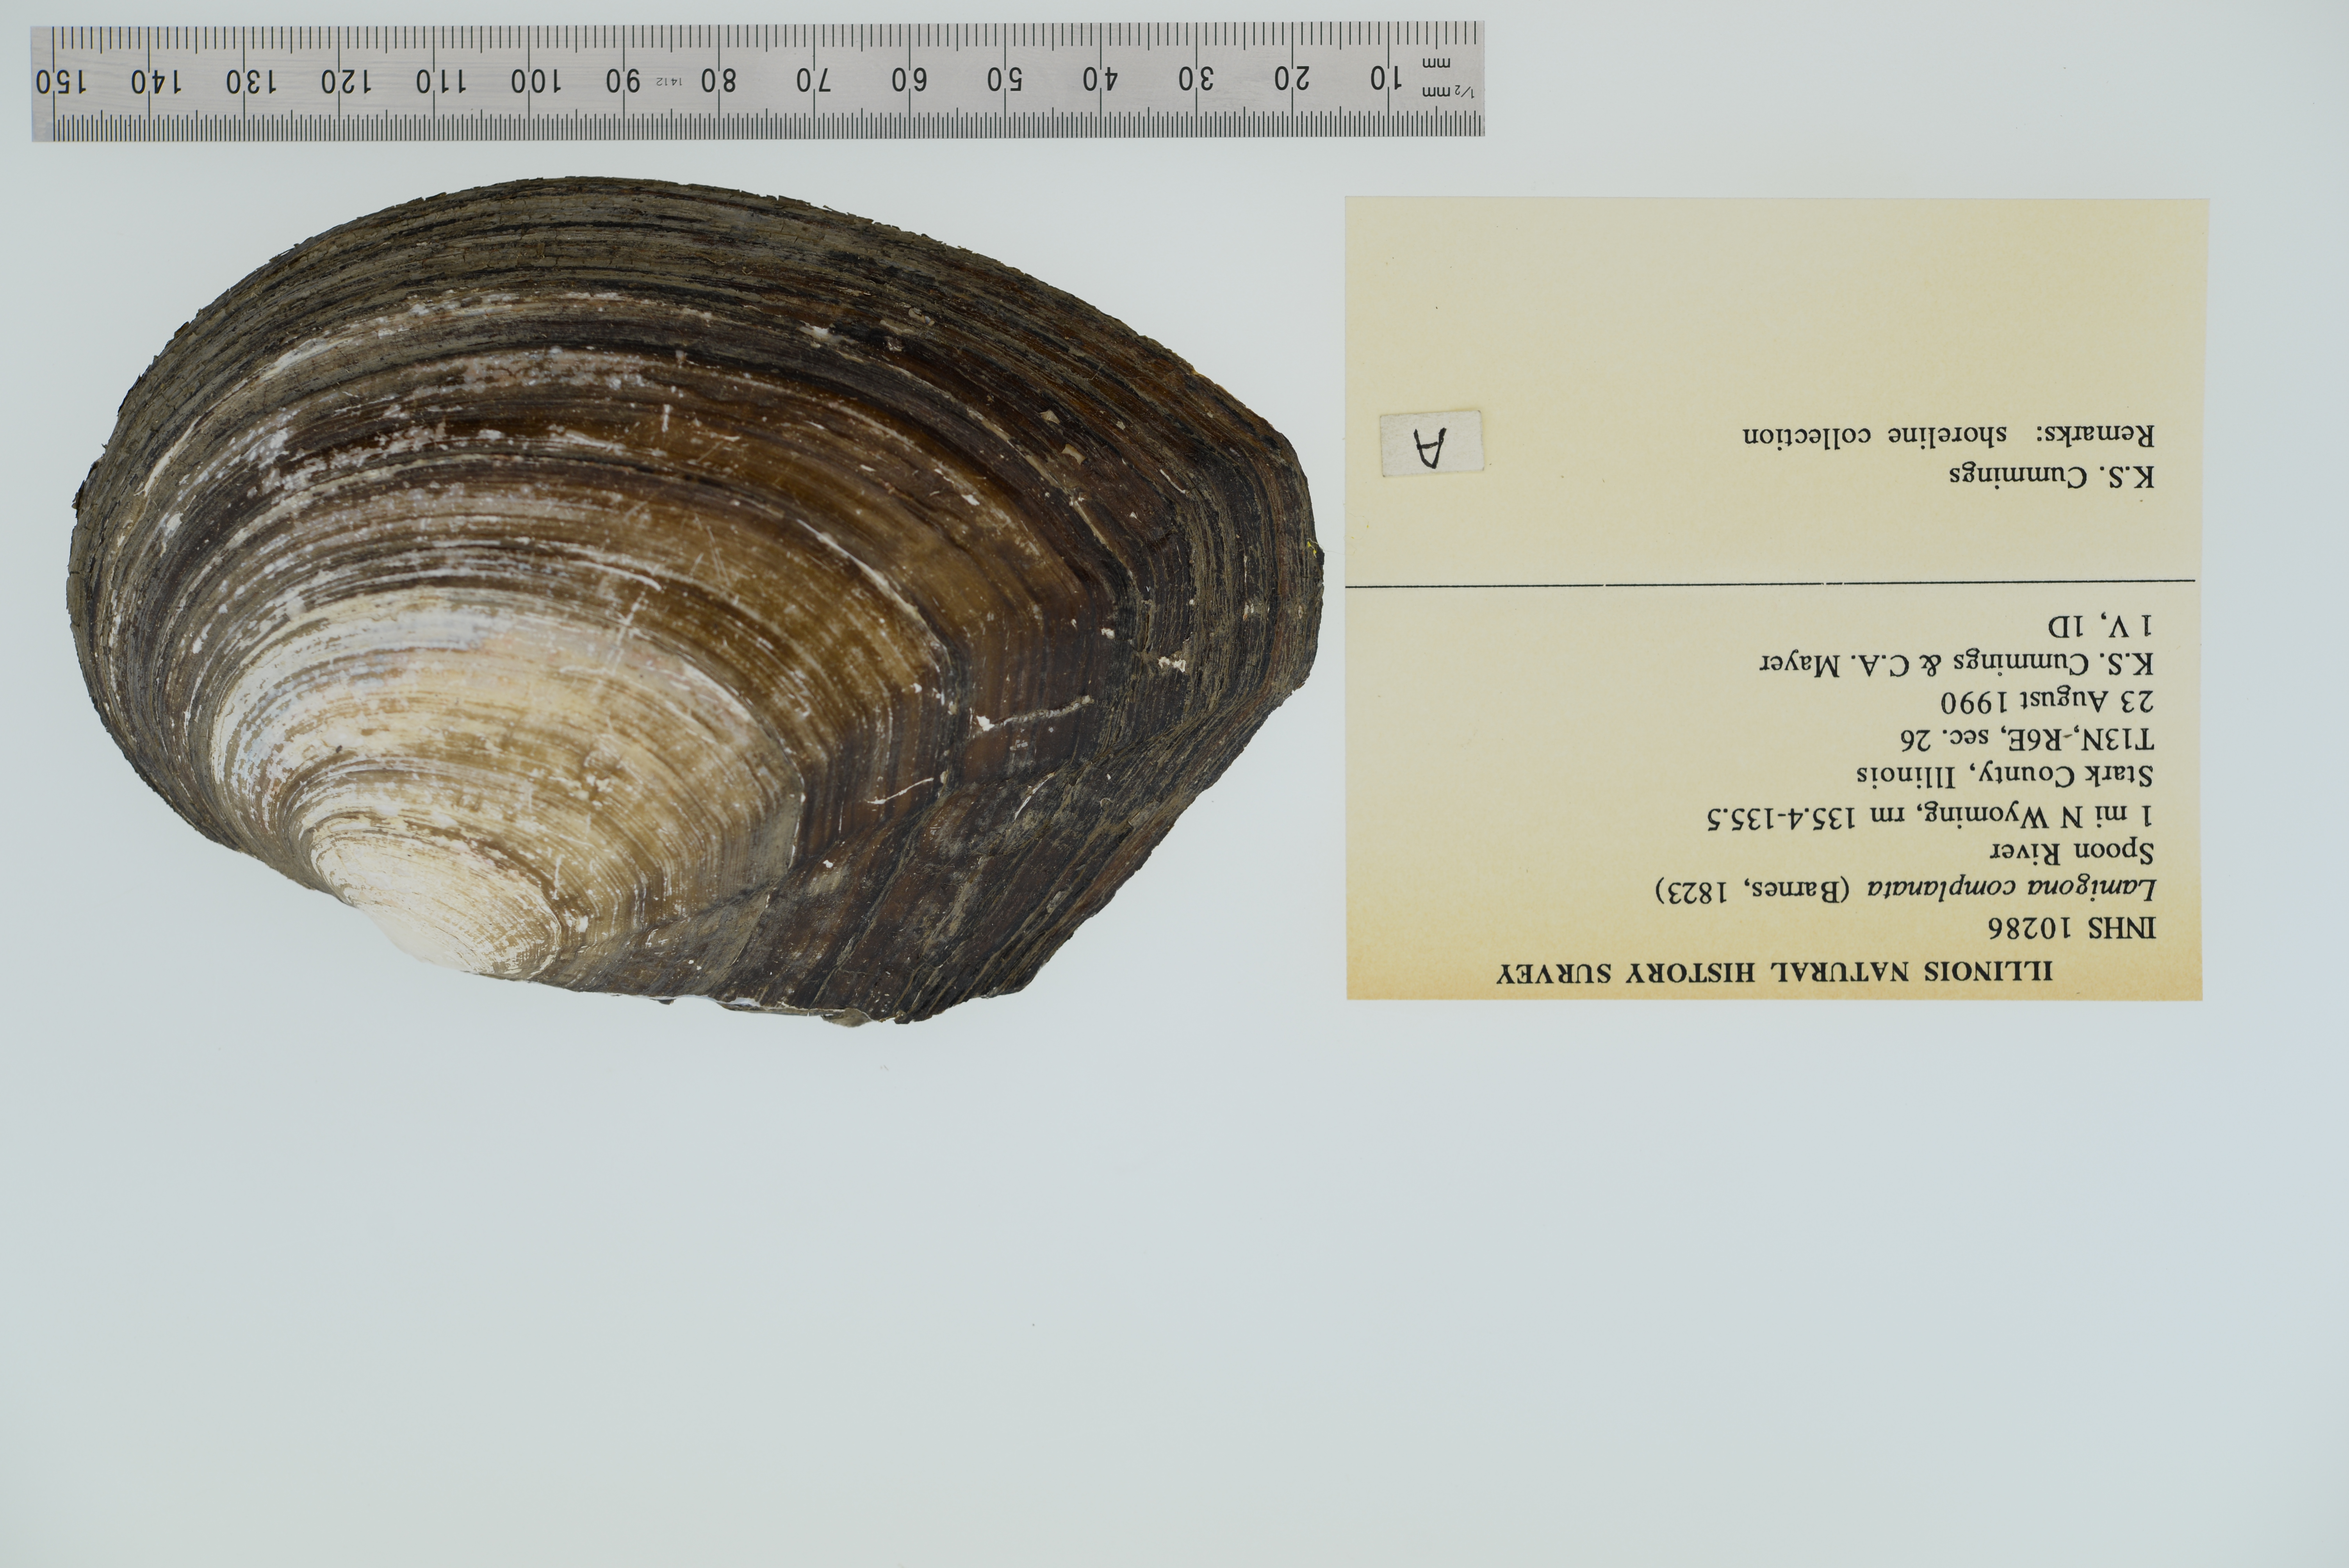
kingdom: Animalia
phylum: Mollusca
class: Bivalvia
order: Unionida
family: Unionidae
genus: Lasmigona
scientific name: Lasmigona complanata
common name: White heelsplitter
